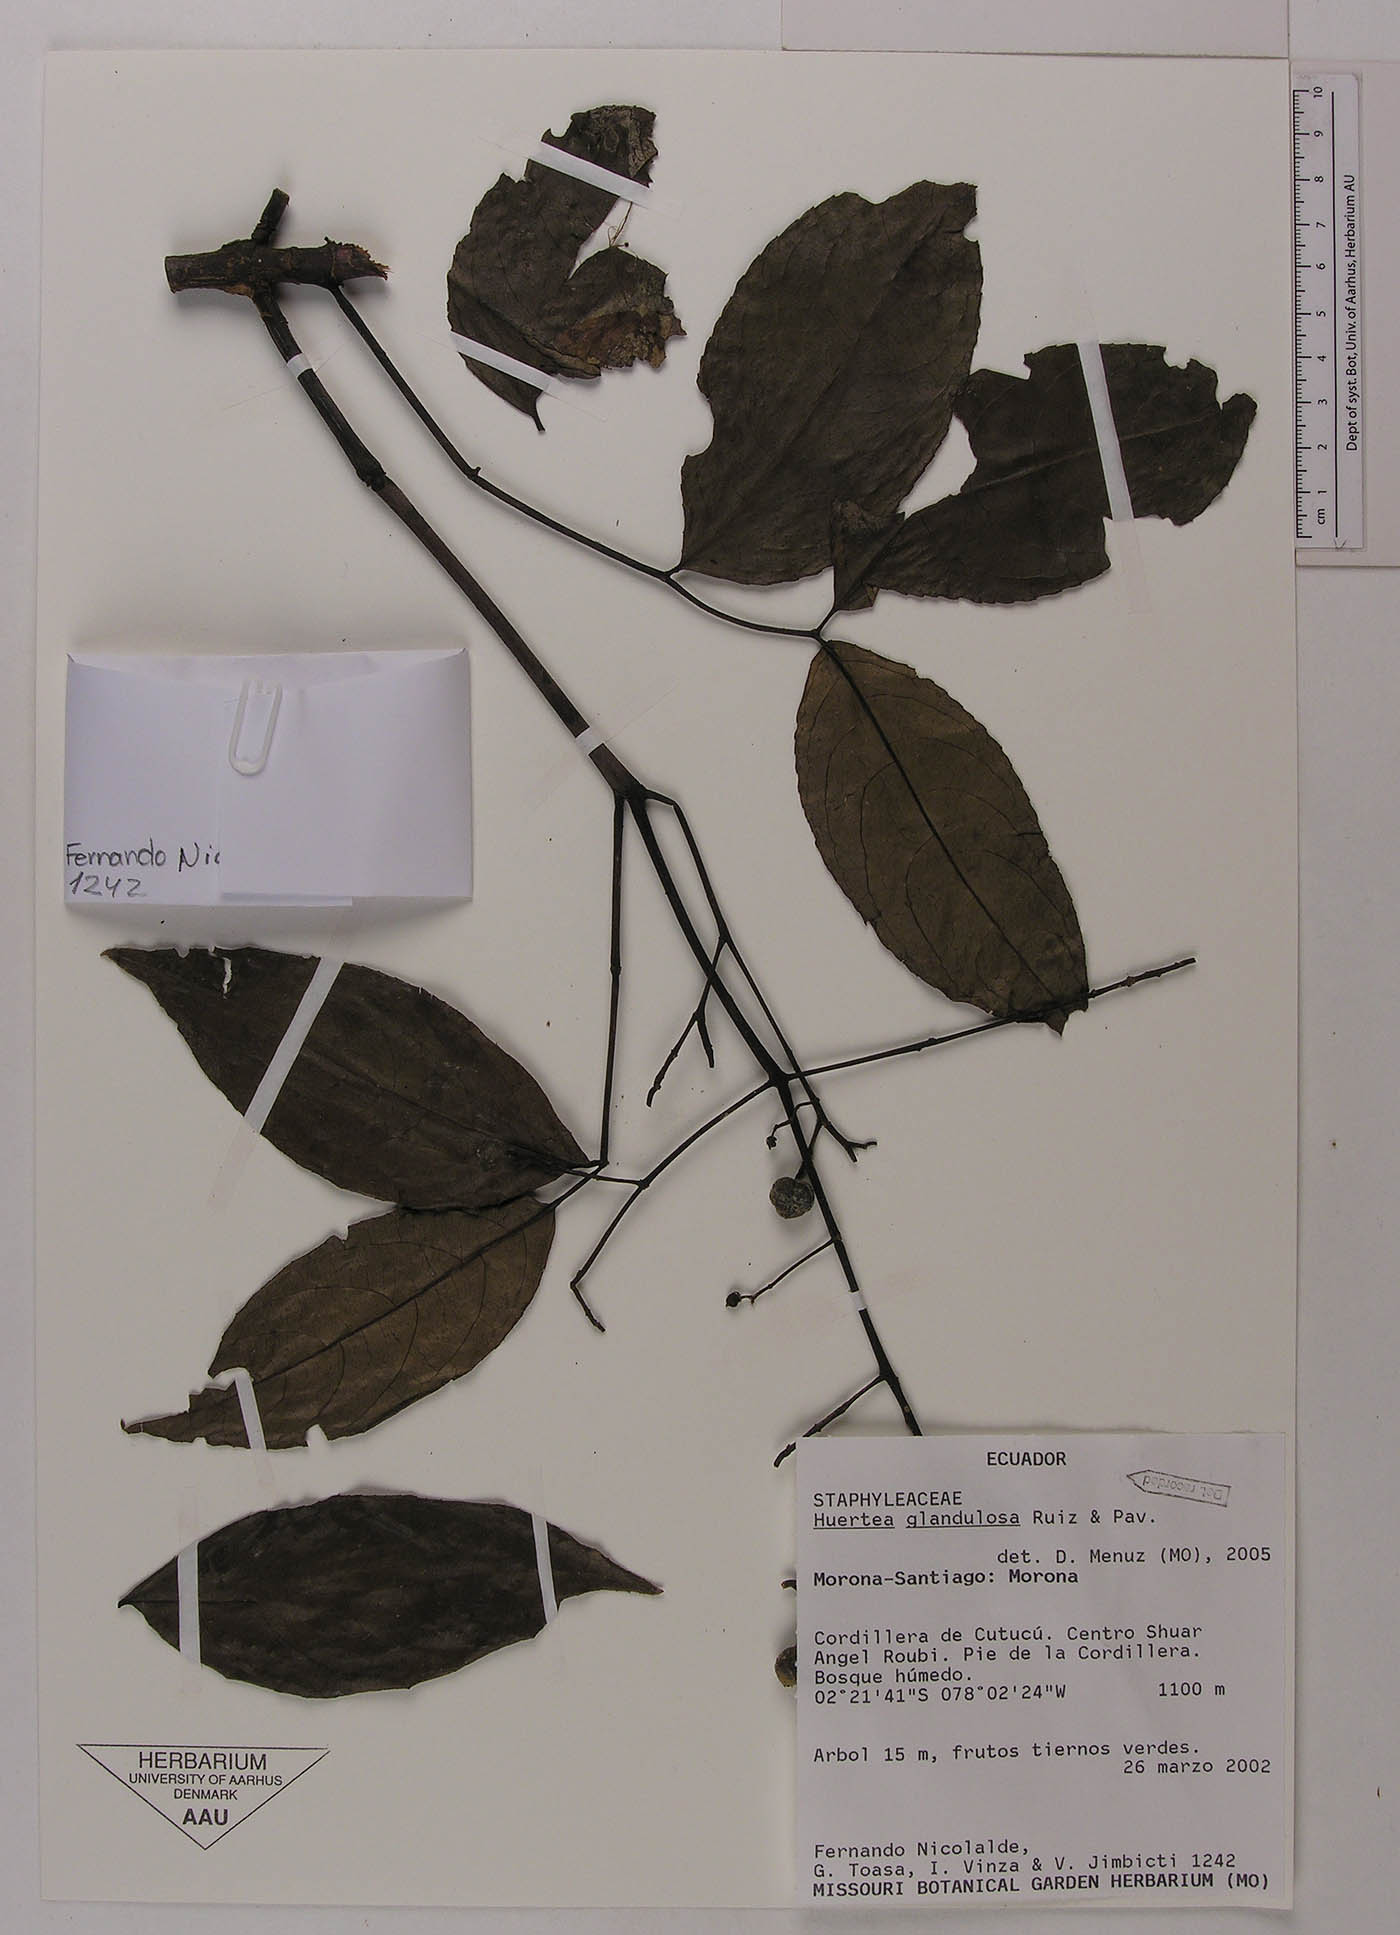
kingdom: Plantae
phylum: Tracheophyta
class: Magnoliopsida
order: Crossosomatales
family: Staphyleaceae
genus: Turpinia
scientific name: Turpinia occidentalis
